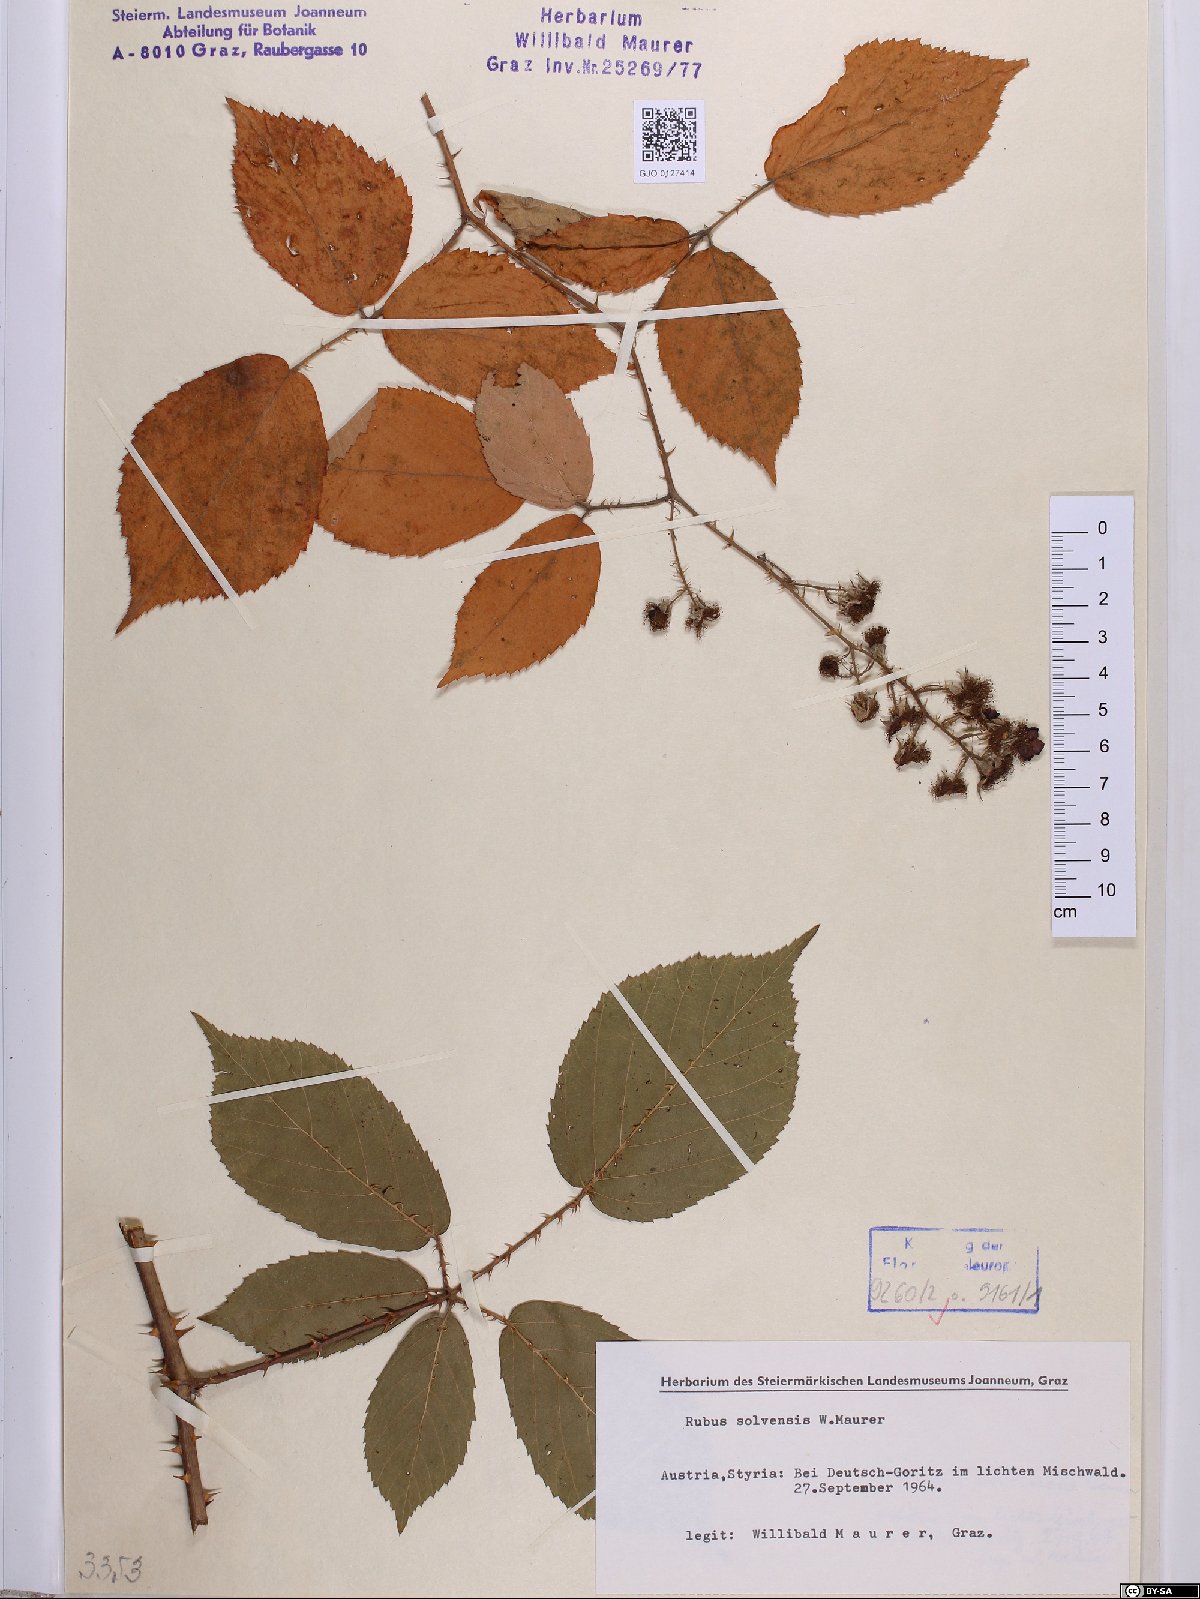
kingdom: Plantae
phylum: Tracheophyta
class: Magnoliopsida
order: Rosales
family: Rosaceae
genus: Rubus
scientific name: Rubus solvensis
